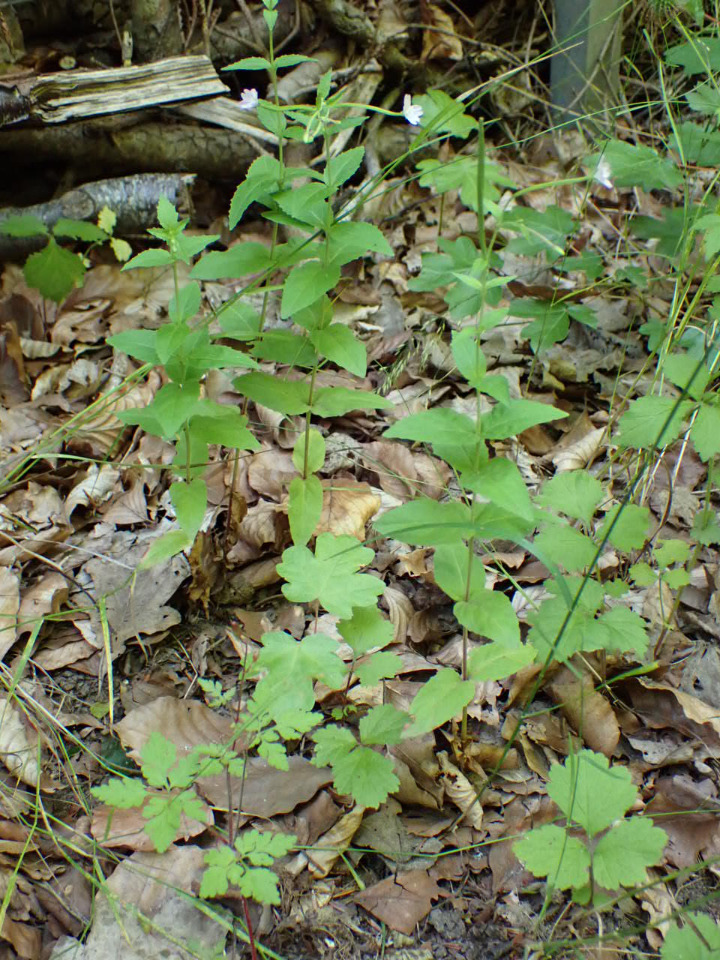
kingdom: Plantae
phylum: Tracheophyta
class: Magnoliopsida
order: Myrtales
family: Onagraceae
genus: Epilobium
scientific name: Epilobium montanum
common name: Glat dueurt
